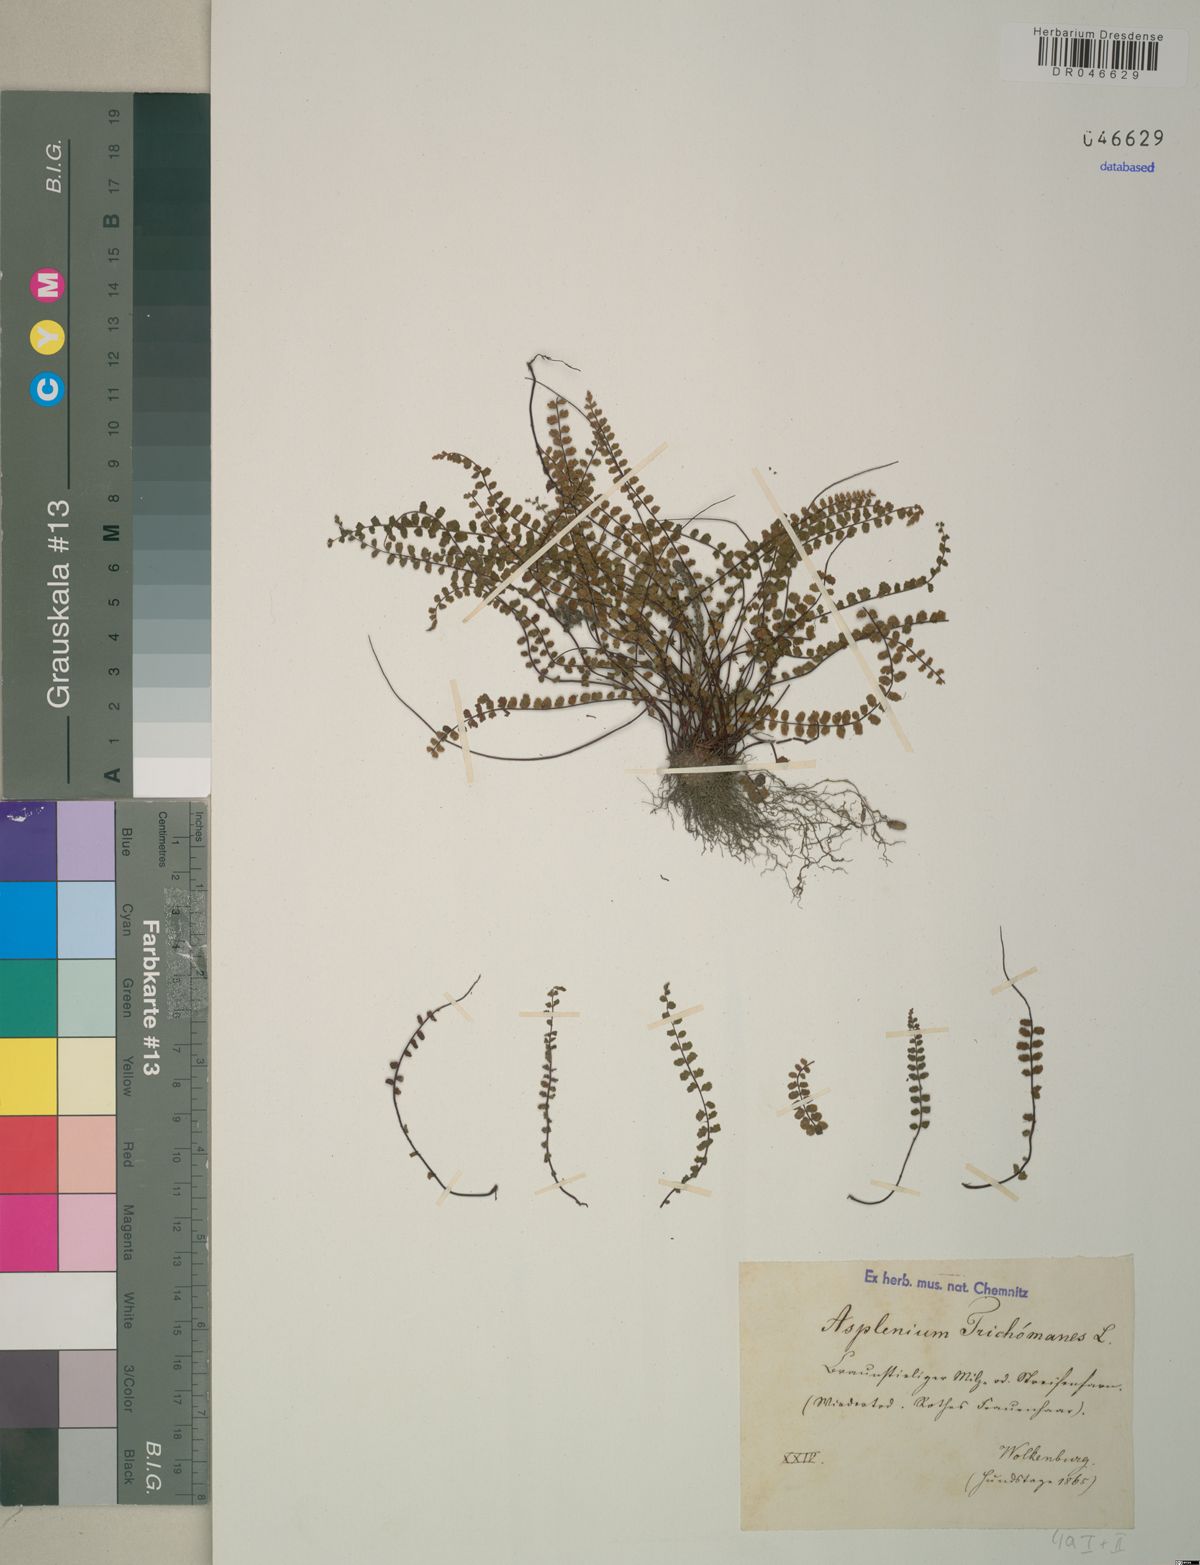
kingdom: Plantae
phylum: Tracheophyta
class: Polypodiopsida
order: Polypodiales
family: Aspleniaceae
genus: Asplenium
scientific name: Asplenium trichomanes
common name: Maidenhair spleenwort
